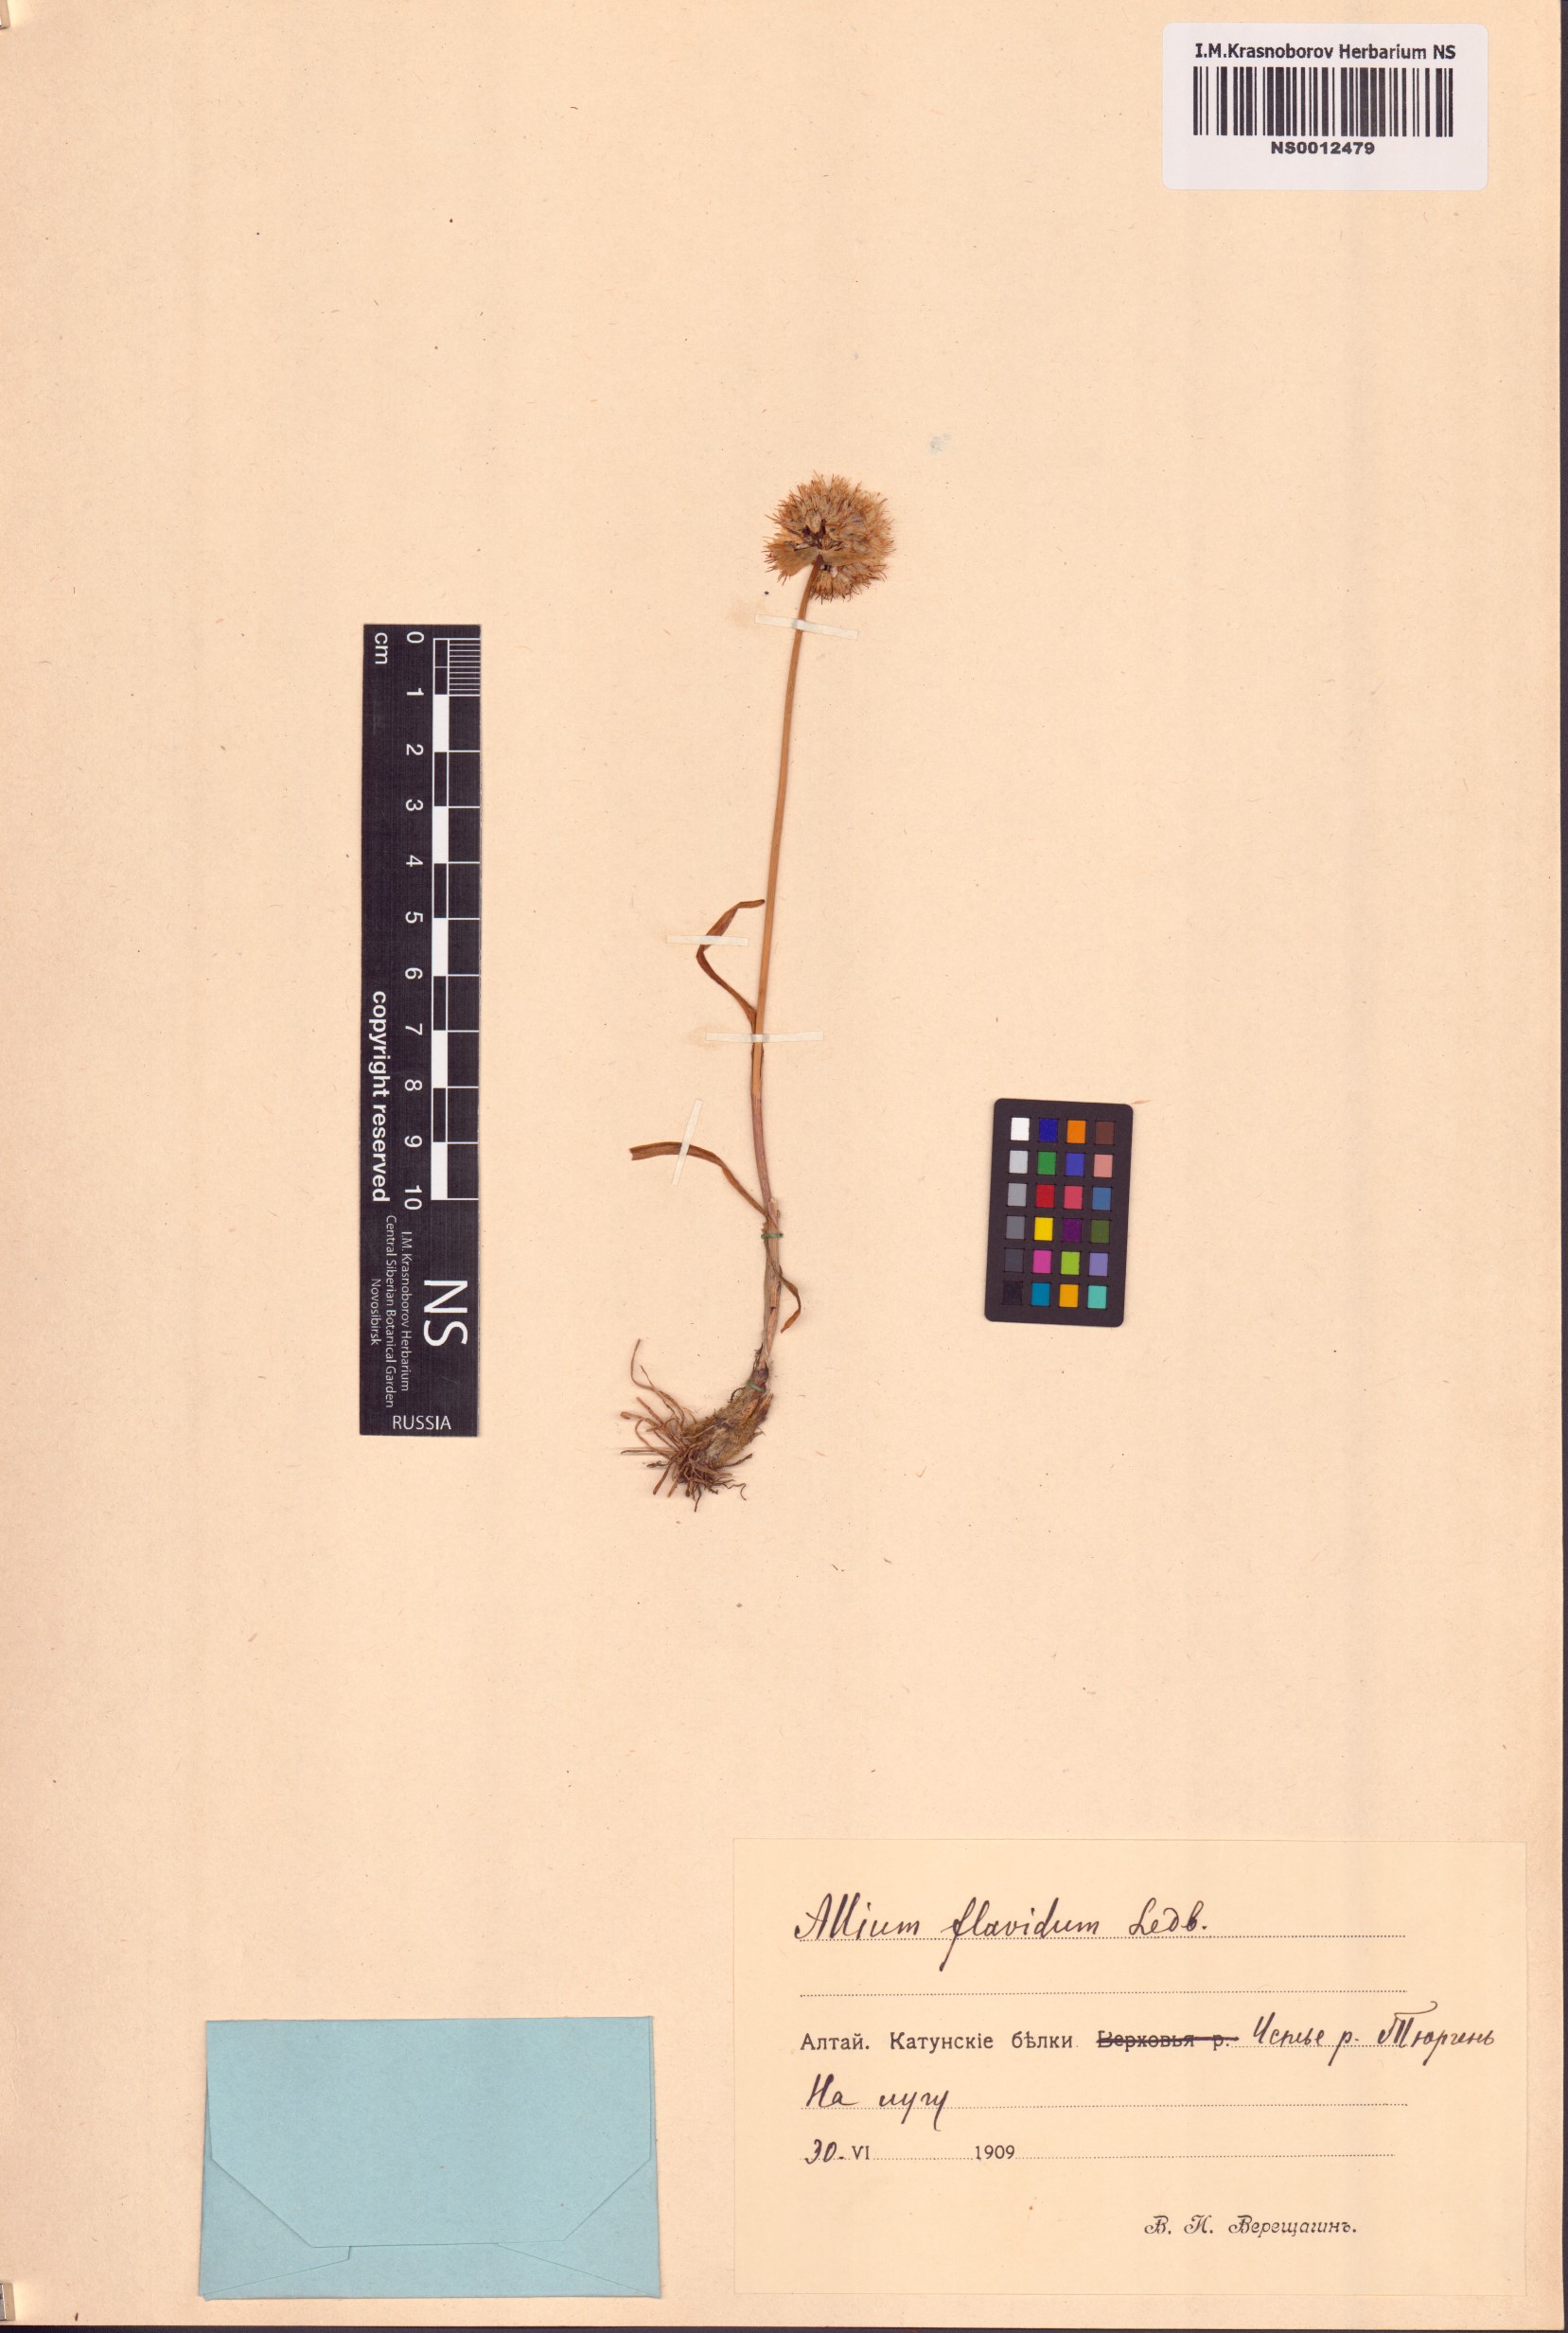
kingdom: Plantae
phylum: Tracheophyta
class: Liliopsida
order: Asparagales
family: Amaryllidaceae
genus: Allium
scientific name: Allium flavidum
